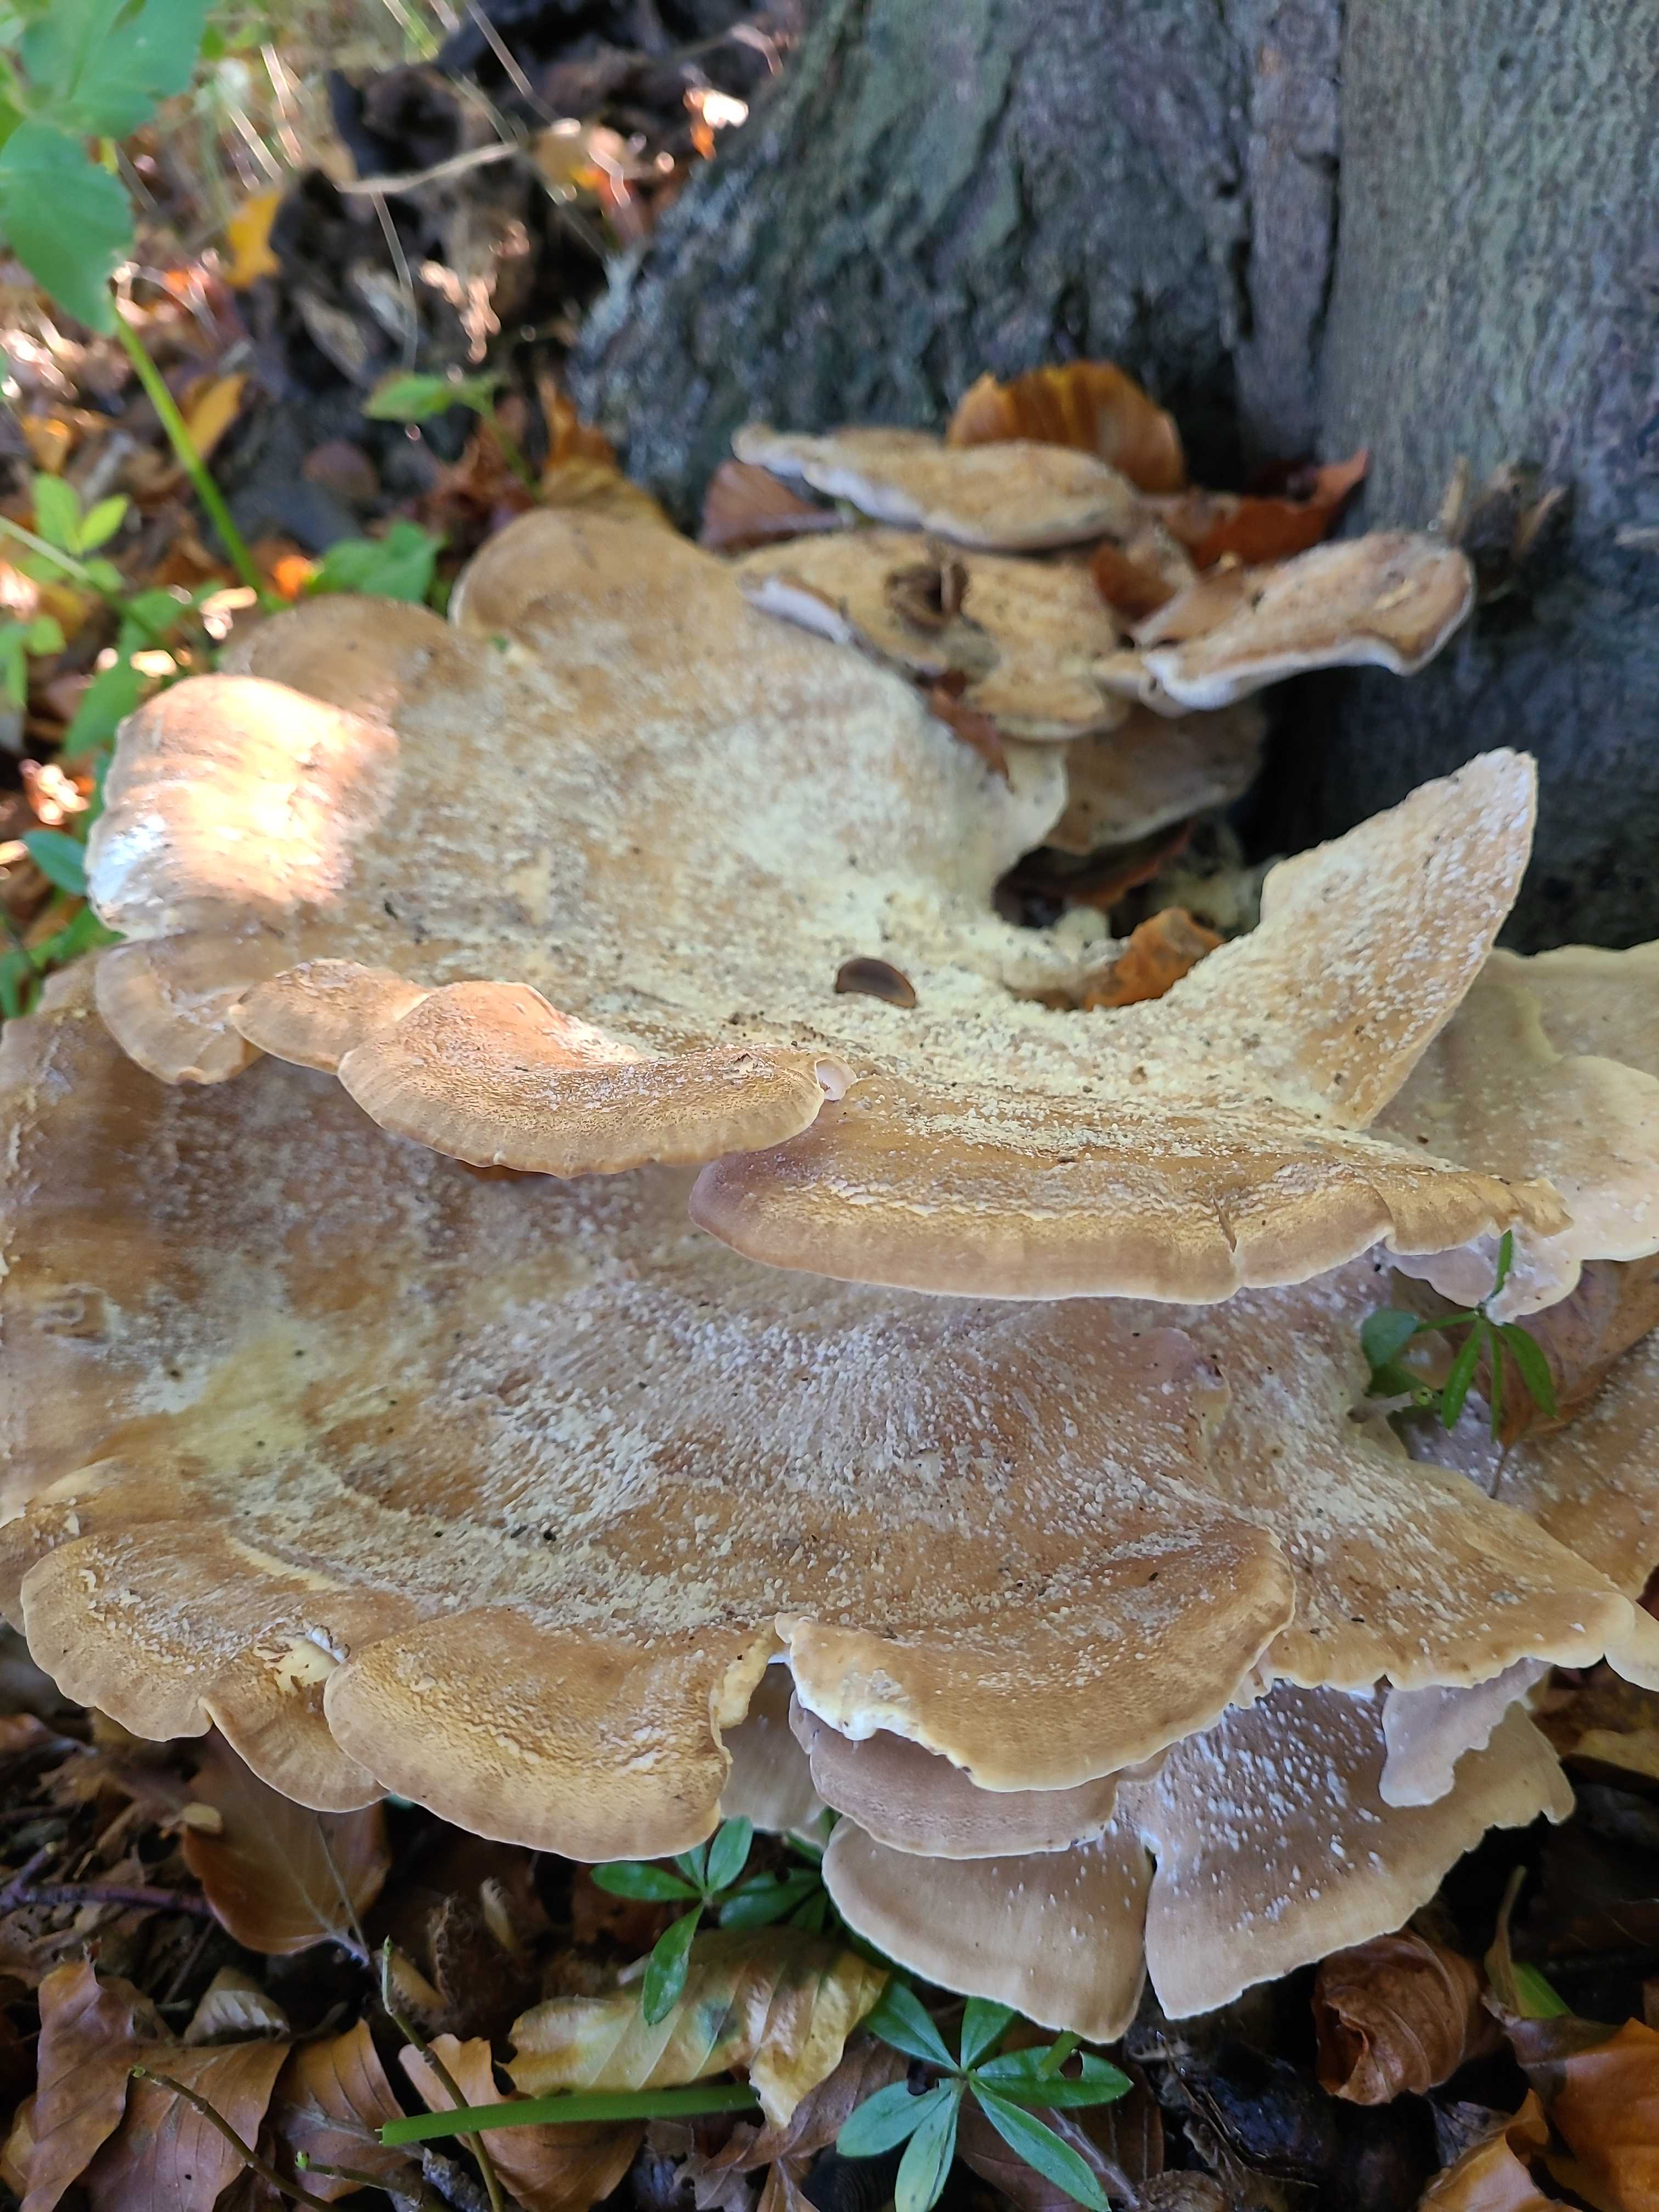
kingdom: Fungi
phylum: Basidiomycota
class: Agaricomycetes
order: Polyporales
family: Meripilaceae
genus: Meripilus
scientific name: Meripilus giganteus
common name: kæmpeporesvamp
